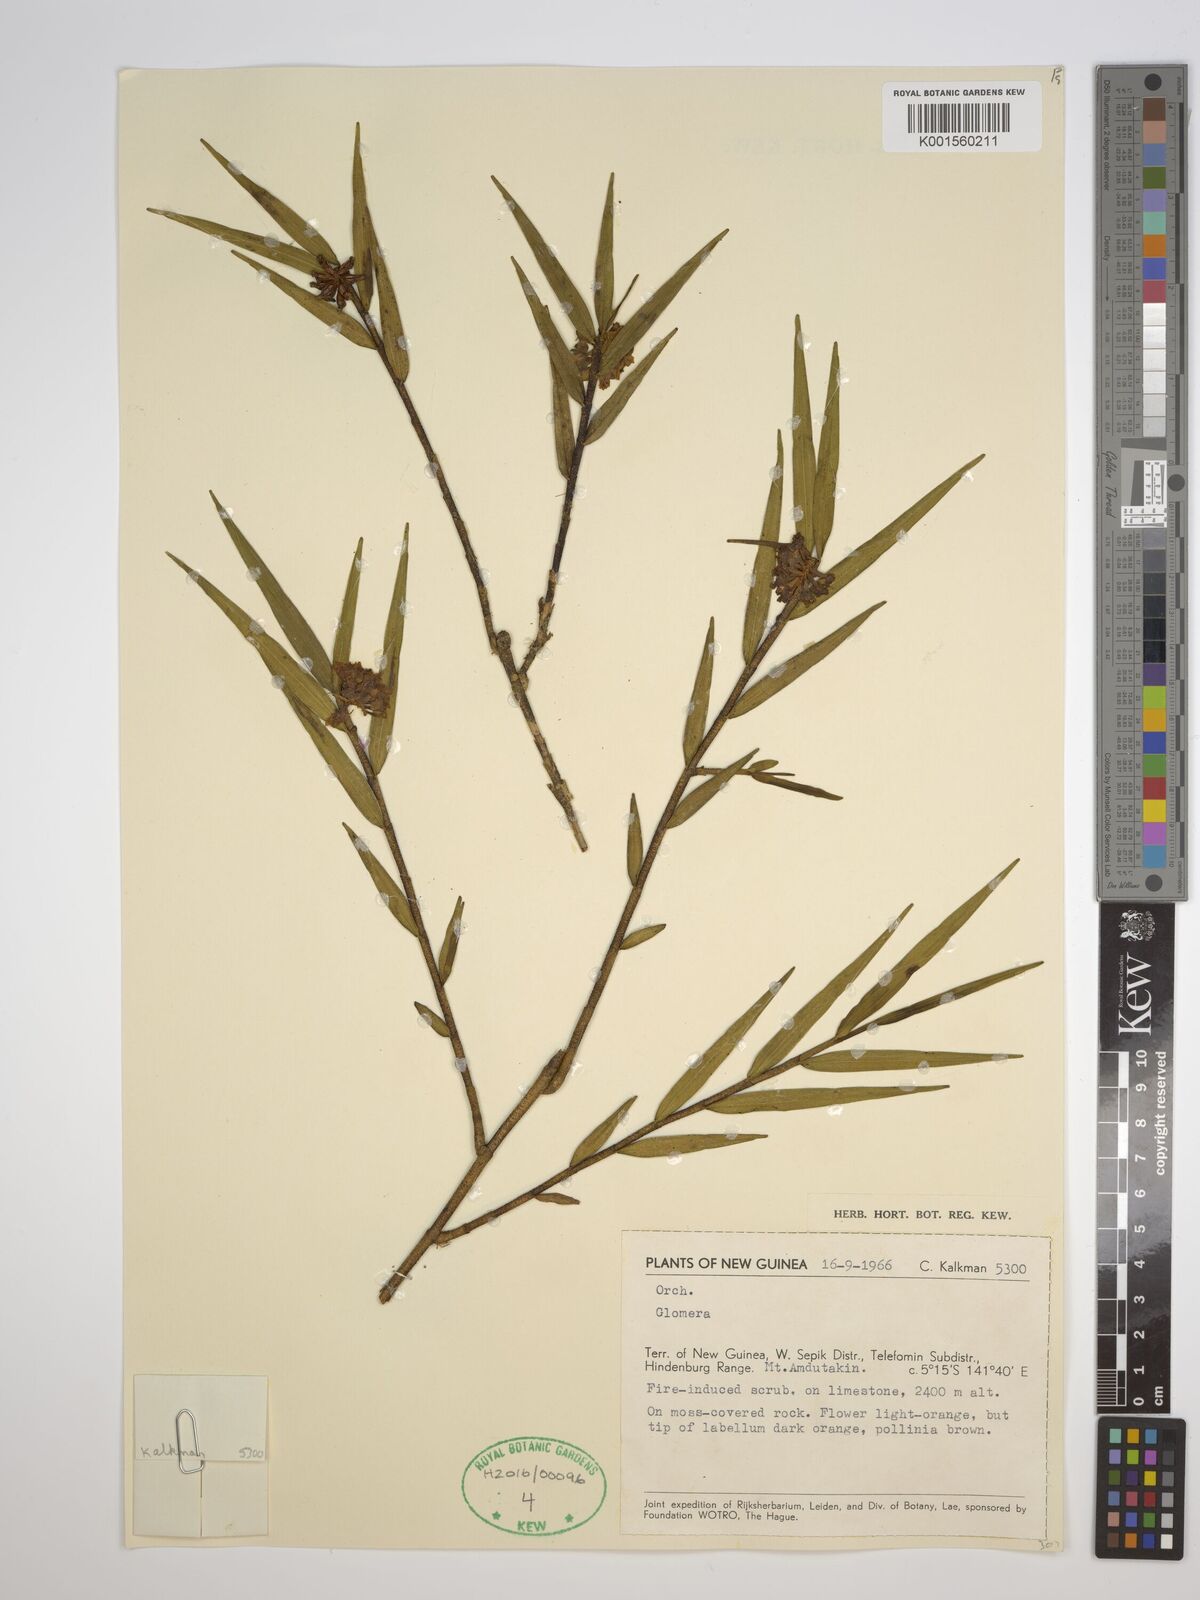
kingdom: Plantae
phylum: Tracheophyta
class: Liliopsida
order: Asparagales
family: Orchidaceae
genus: Glomera
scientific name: Glomera
